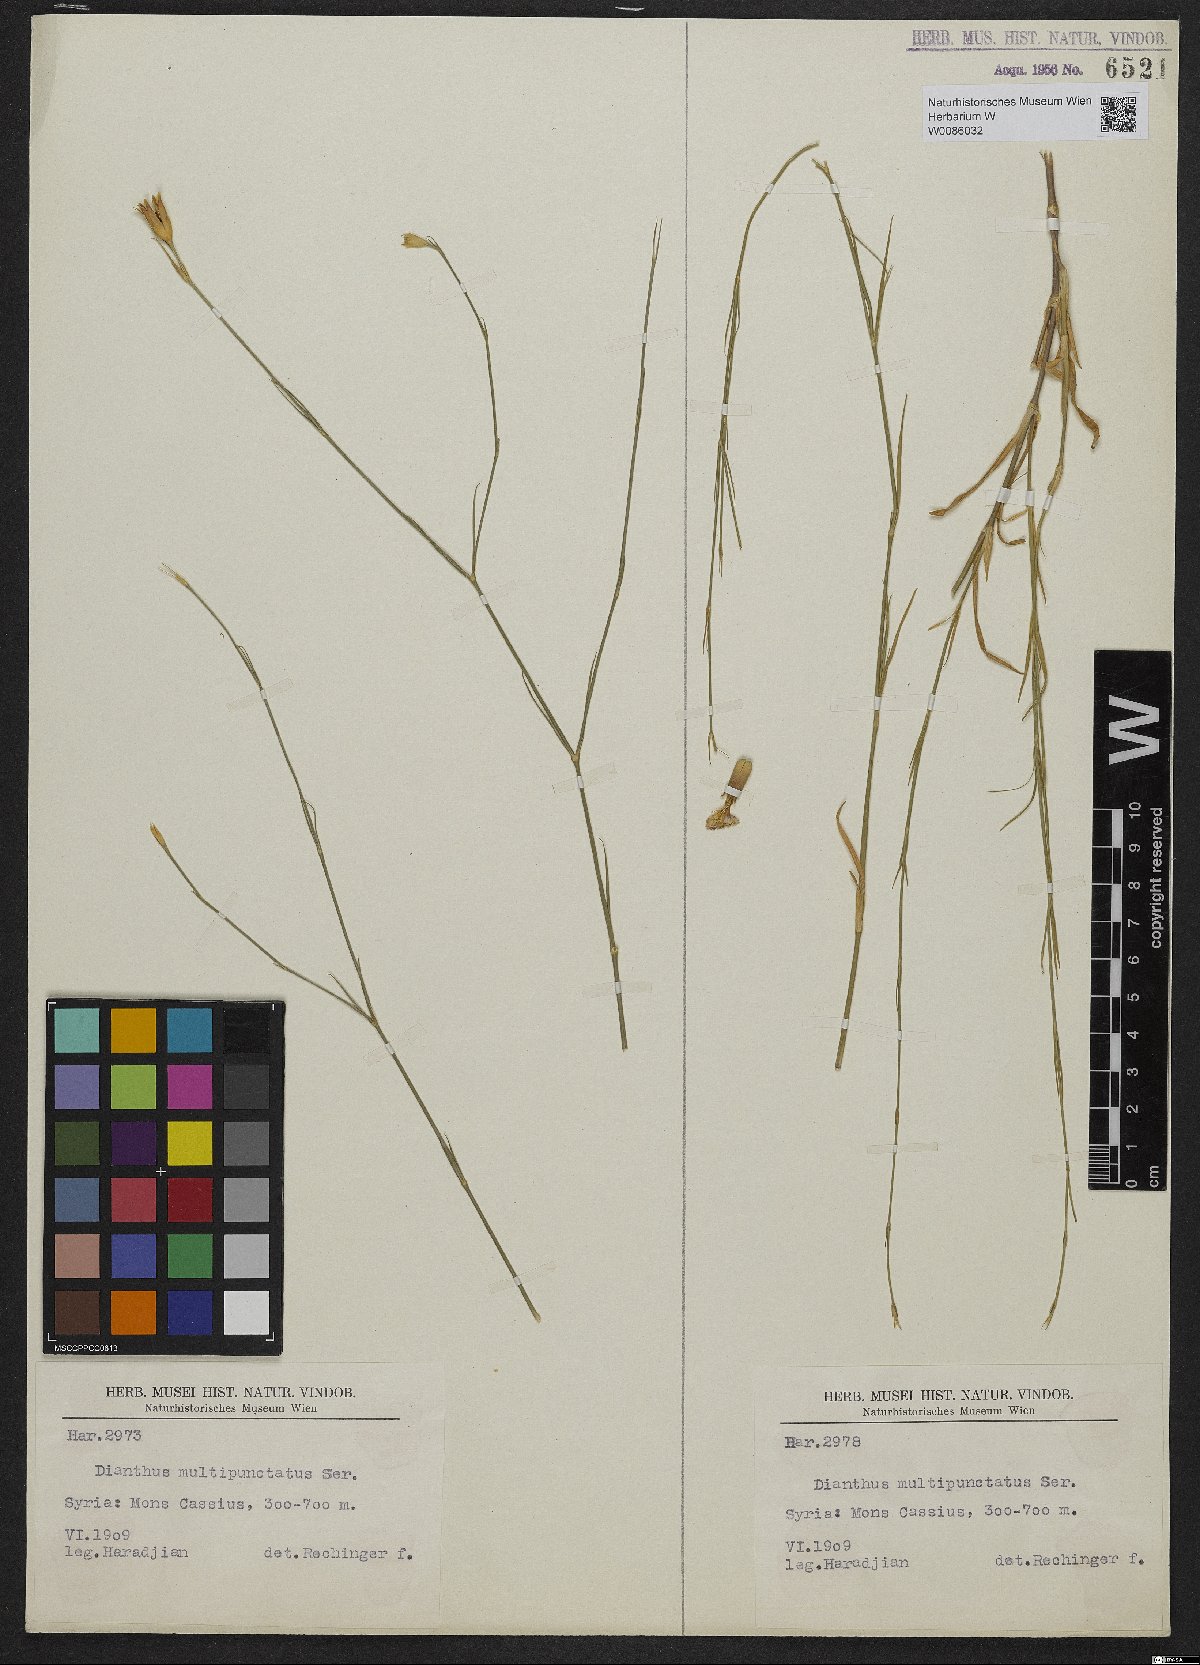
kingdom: Plantae
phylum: Tracheophyta
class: Magnoliopsida
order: Caryophyllales
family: Caryophyllaceae
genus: Dianthus
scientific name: Dianthus strictus
